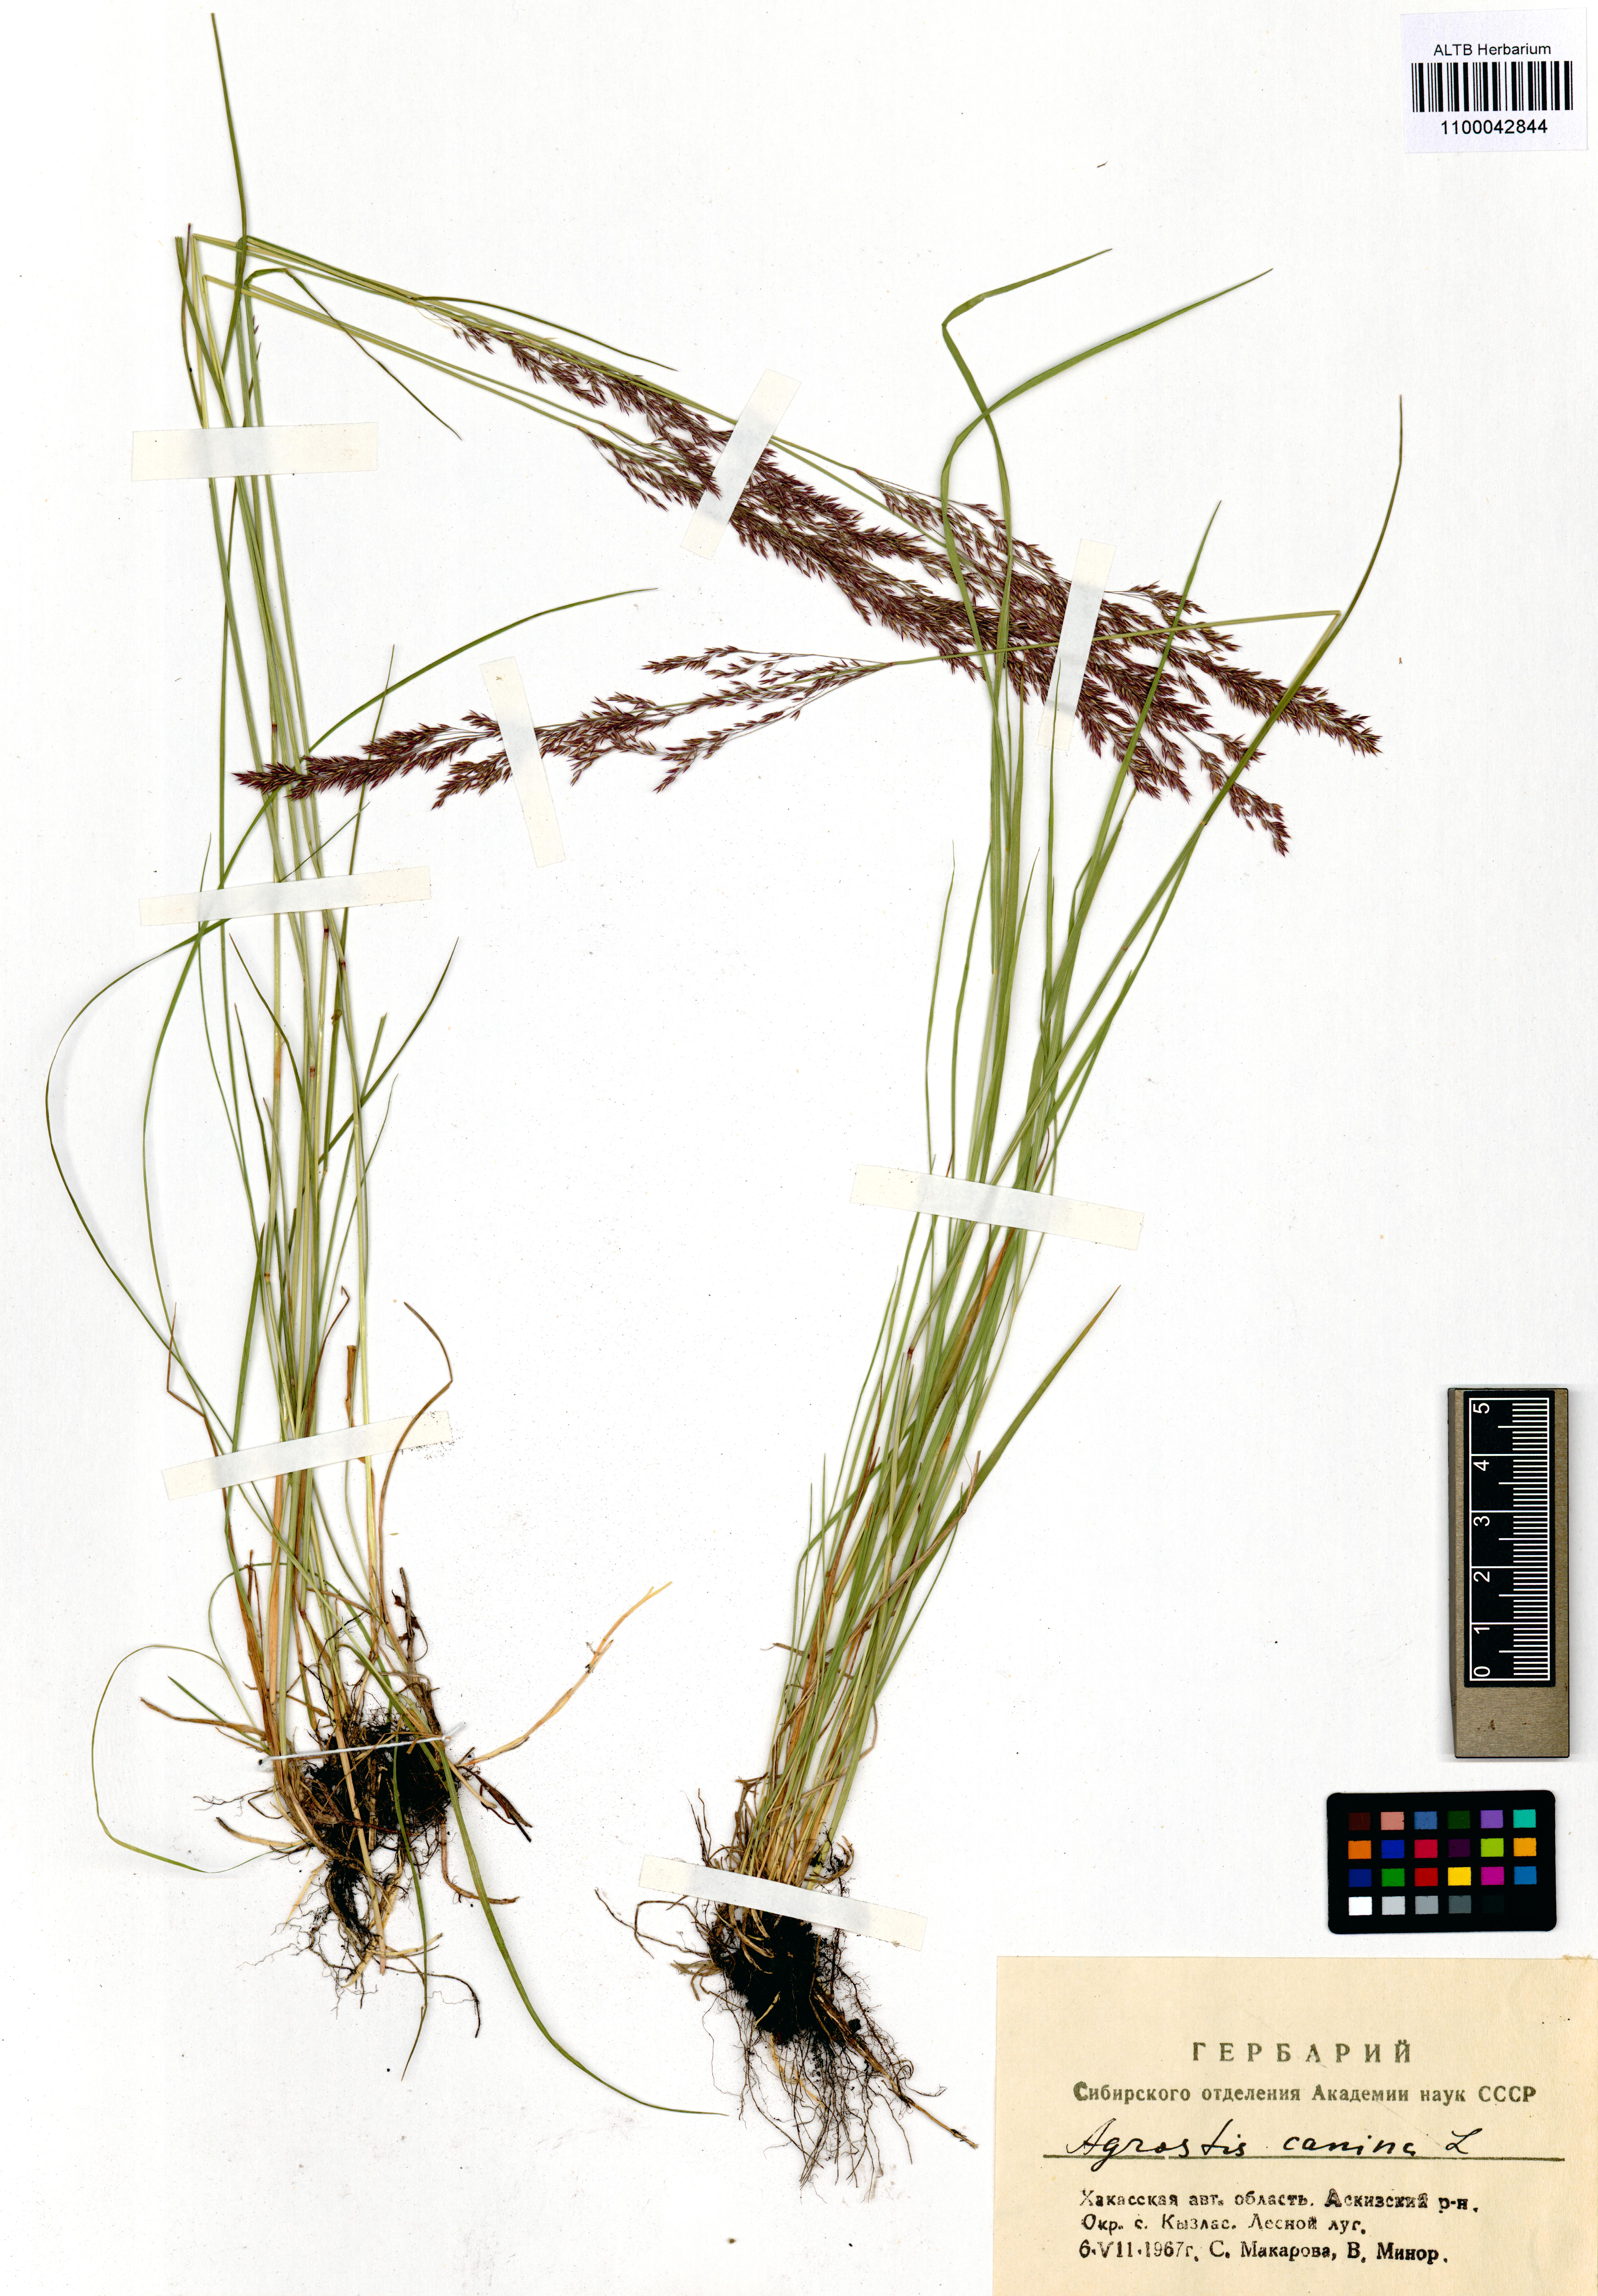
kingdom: Plantae
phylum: Tracheophyta
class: Liliopsida
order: Poales
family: Poaceae
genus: Agrostis
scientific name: Agrostis canina
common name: Velvet bent
